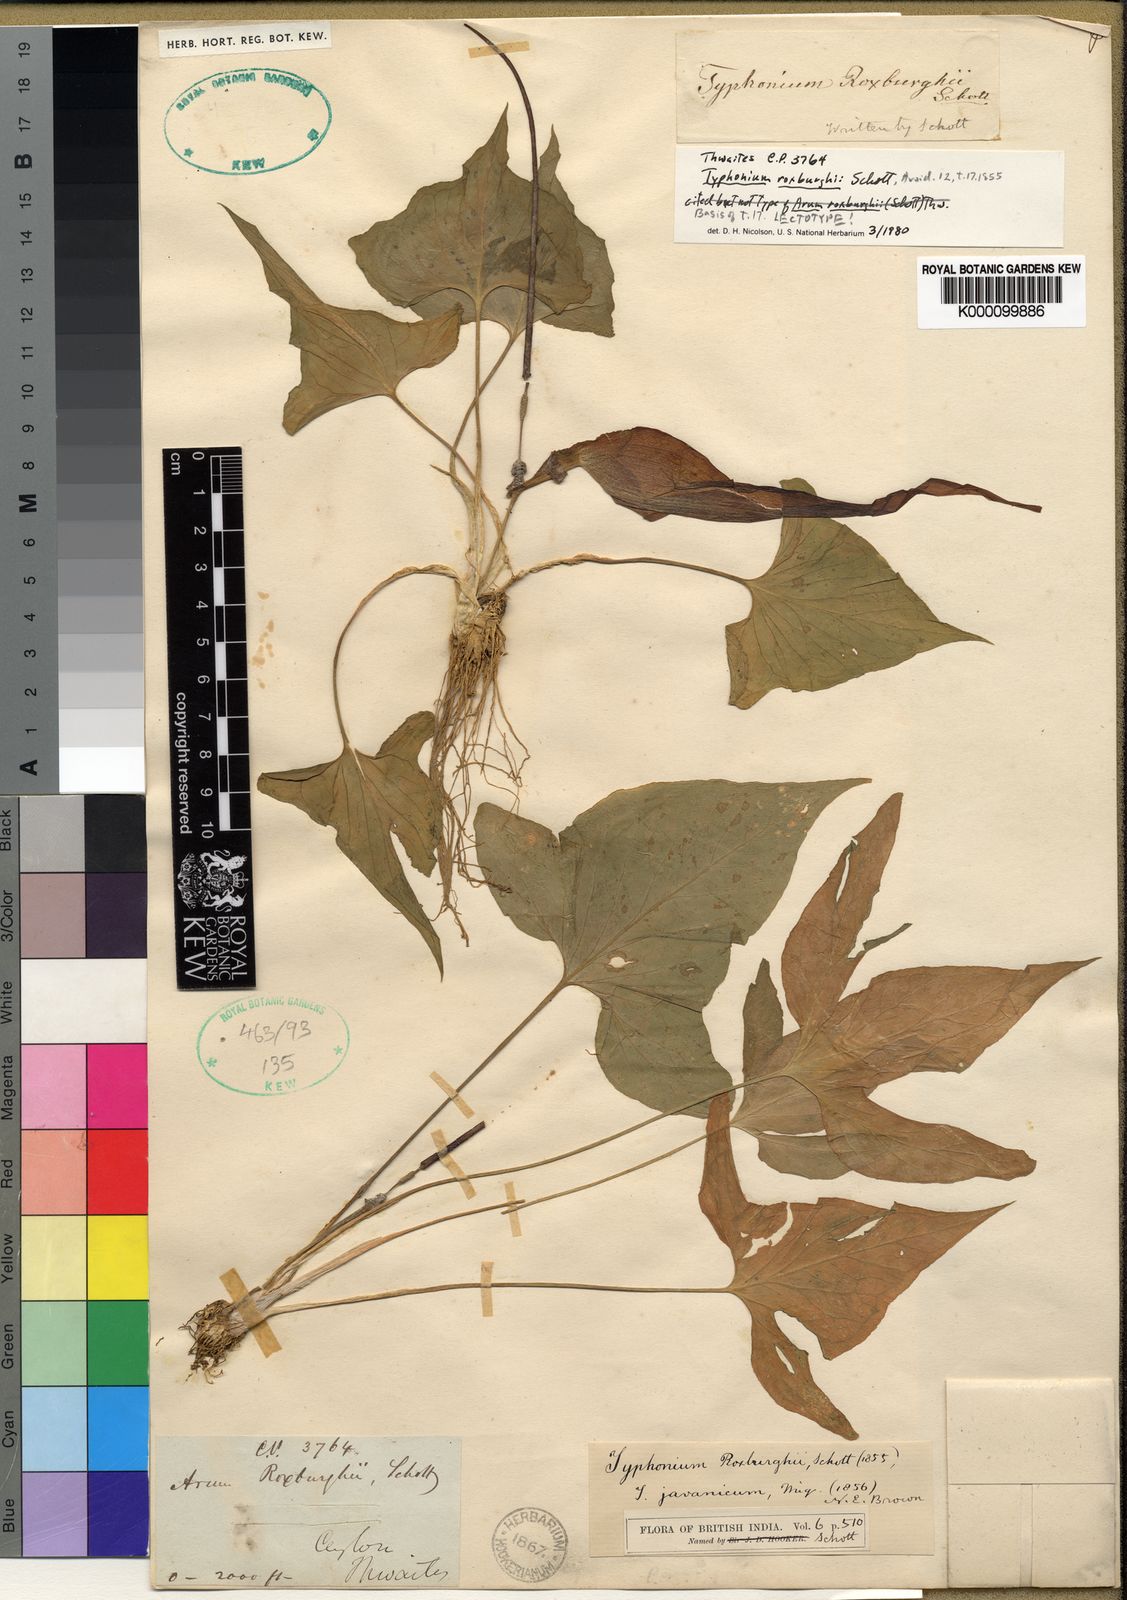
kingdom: Plantae
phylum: Tracheophyta
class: Liliopsida
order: Alismatales
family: Araceae
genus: Typhonium
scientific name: Typhonium roxburghii
